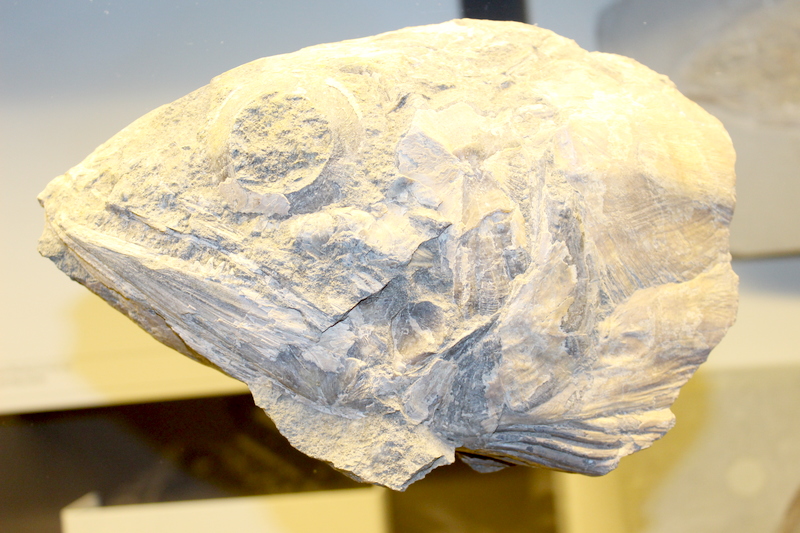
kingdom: Animalia
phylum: Chordata
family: Pachycormidae
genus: Pachycormus
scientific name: Pachycormus
